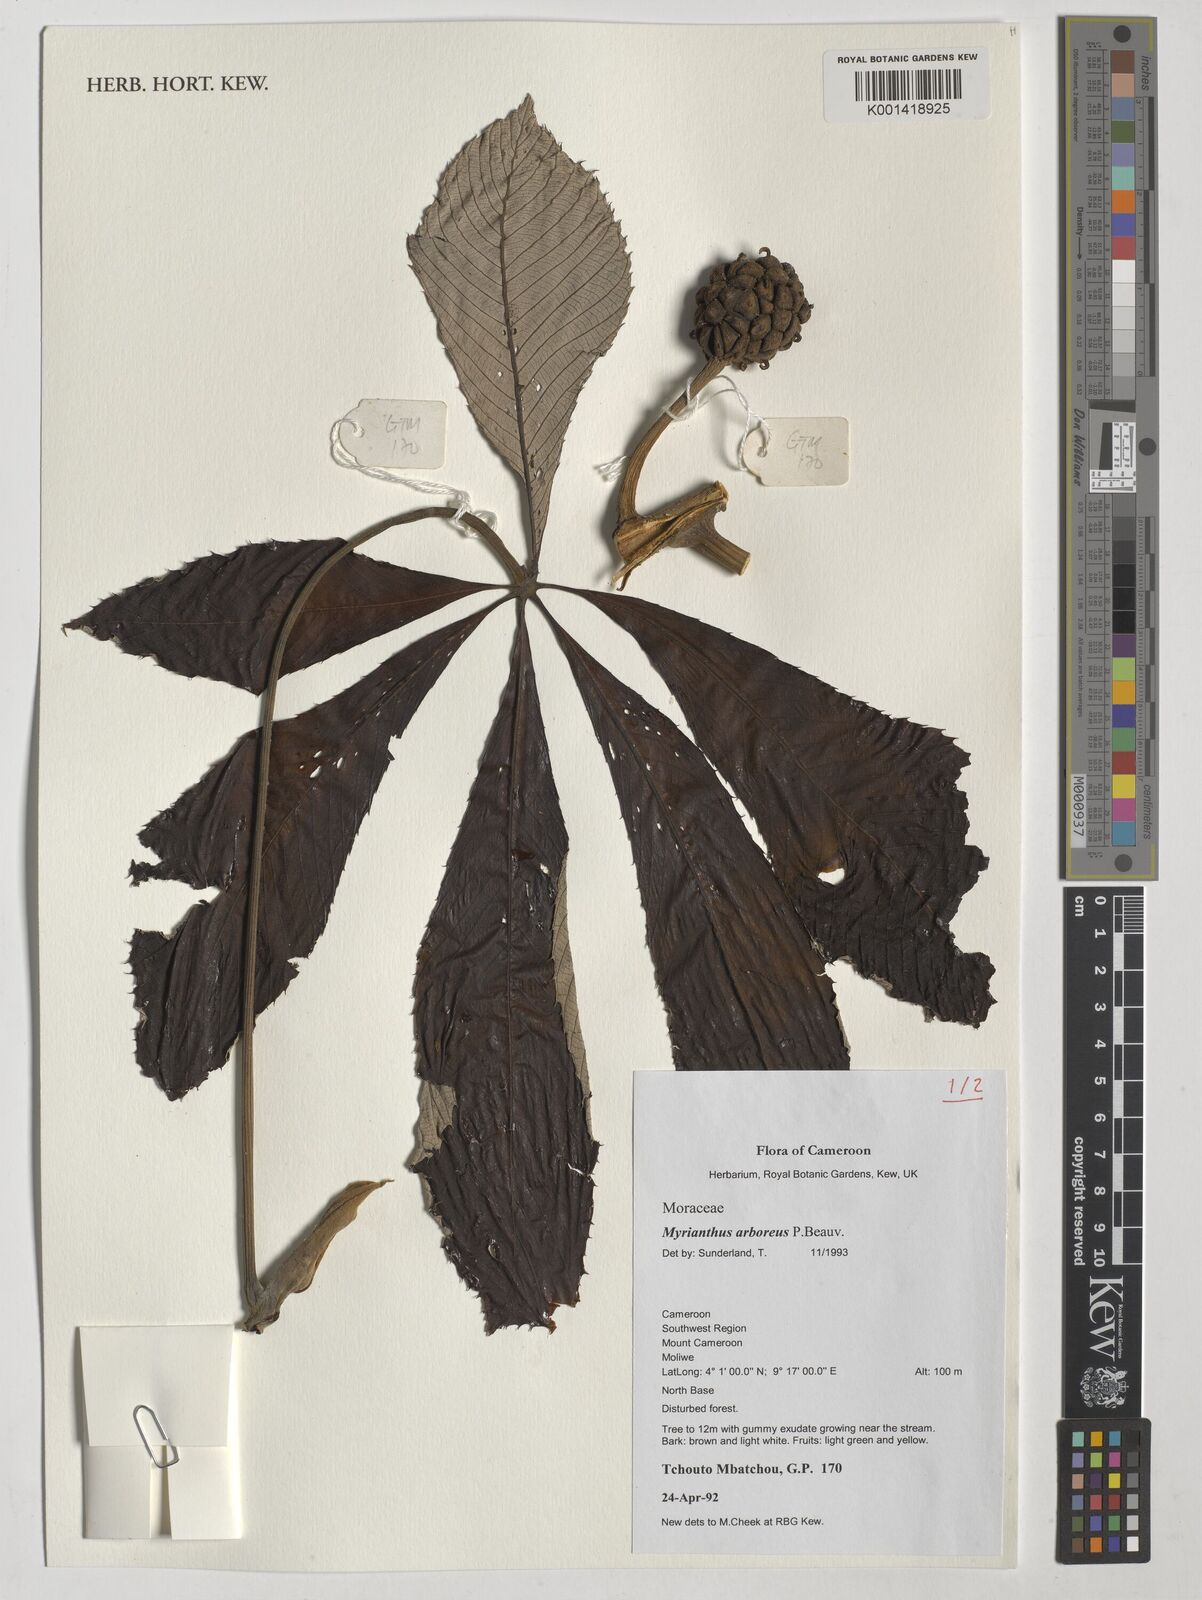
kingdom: Plantae
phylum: Tracheophyta
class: Magnoliopsida
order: Rosales
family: Urticaceae
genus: Myrianthus
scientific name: Myrianthus arboreus
